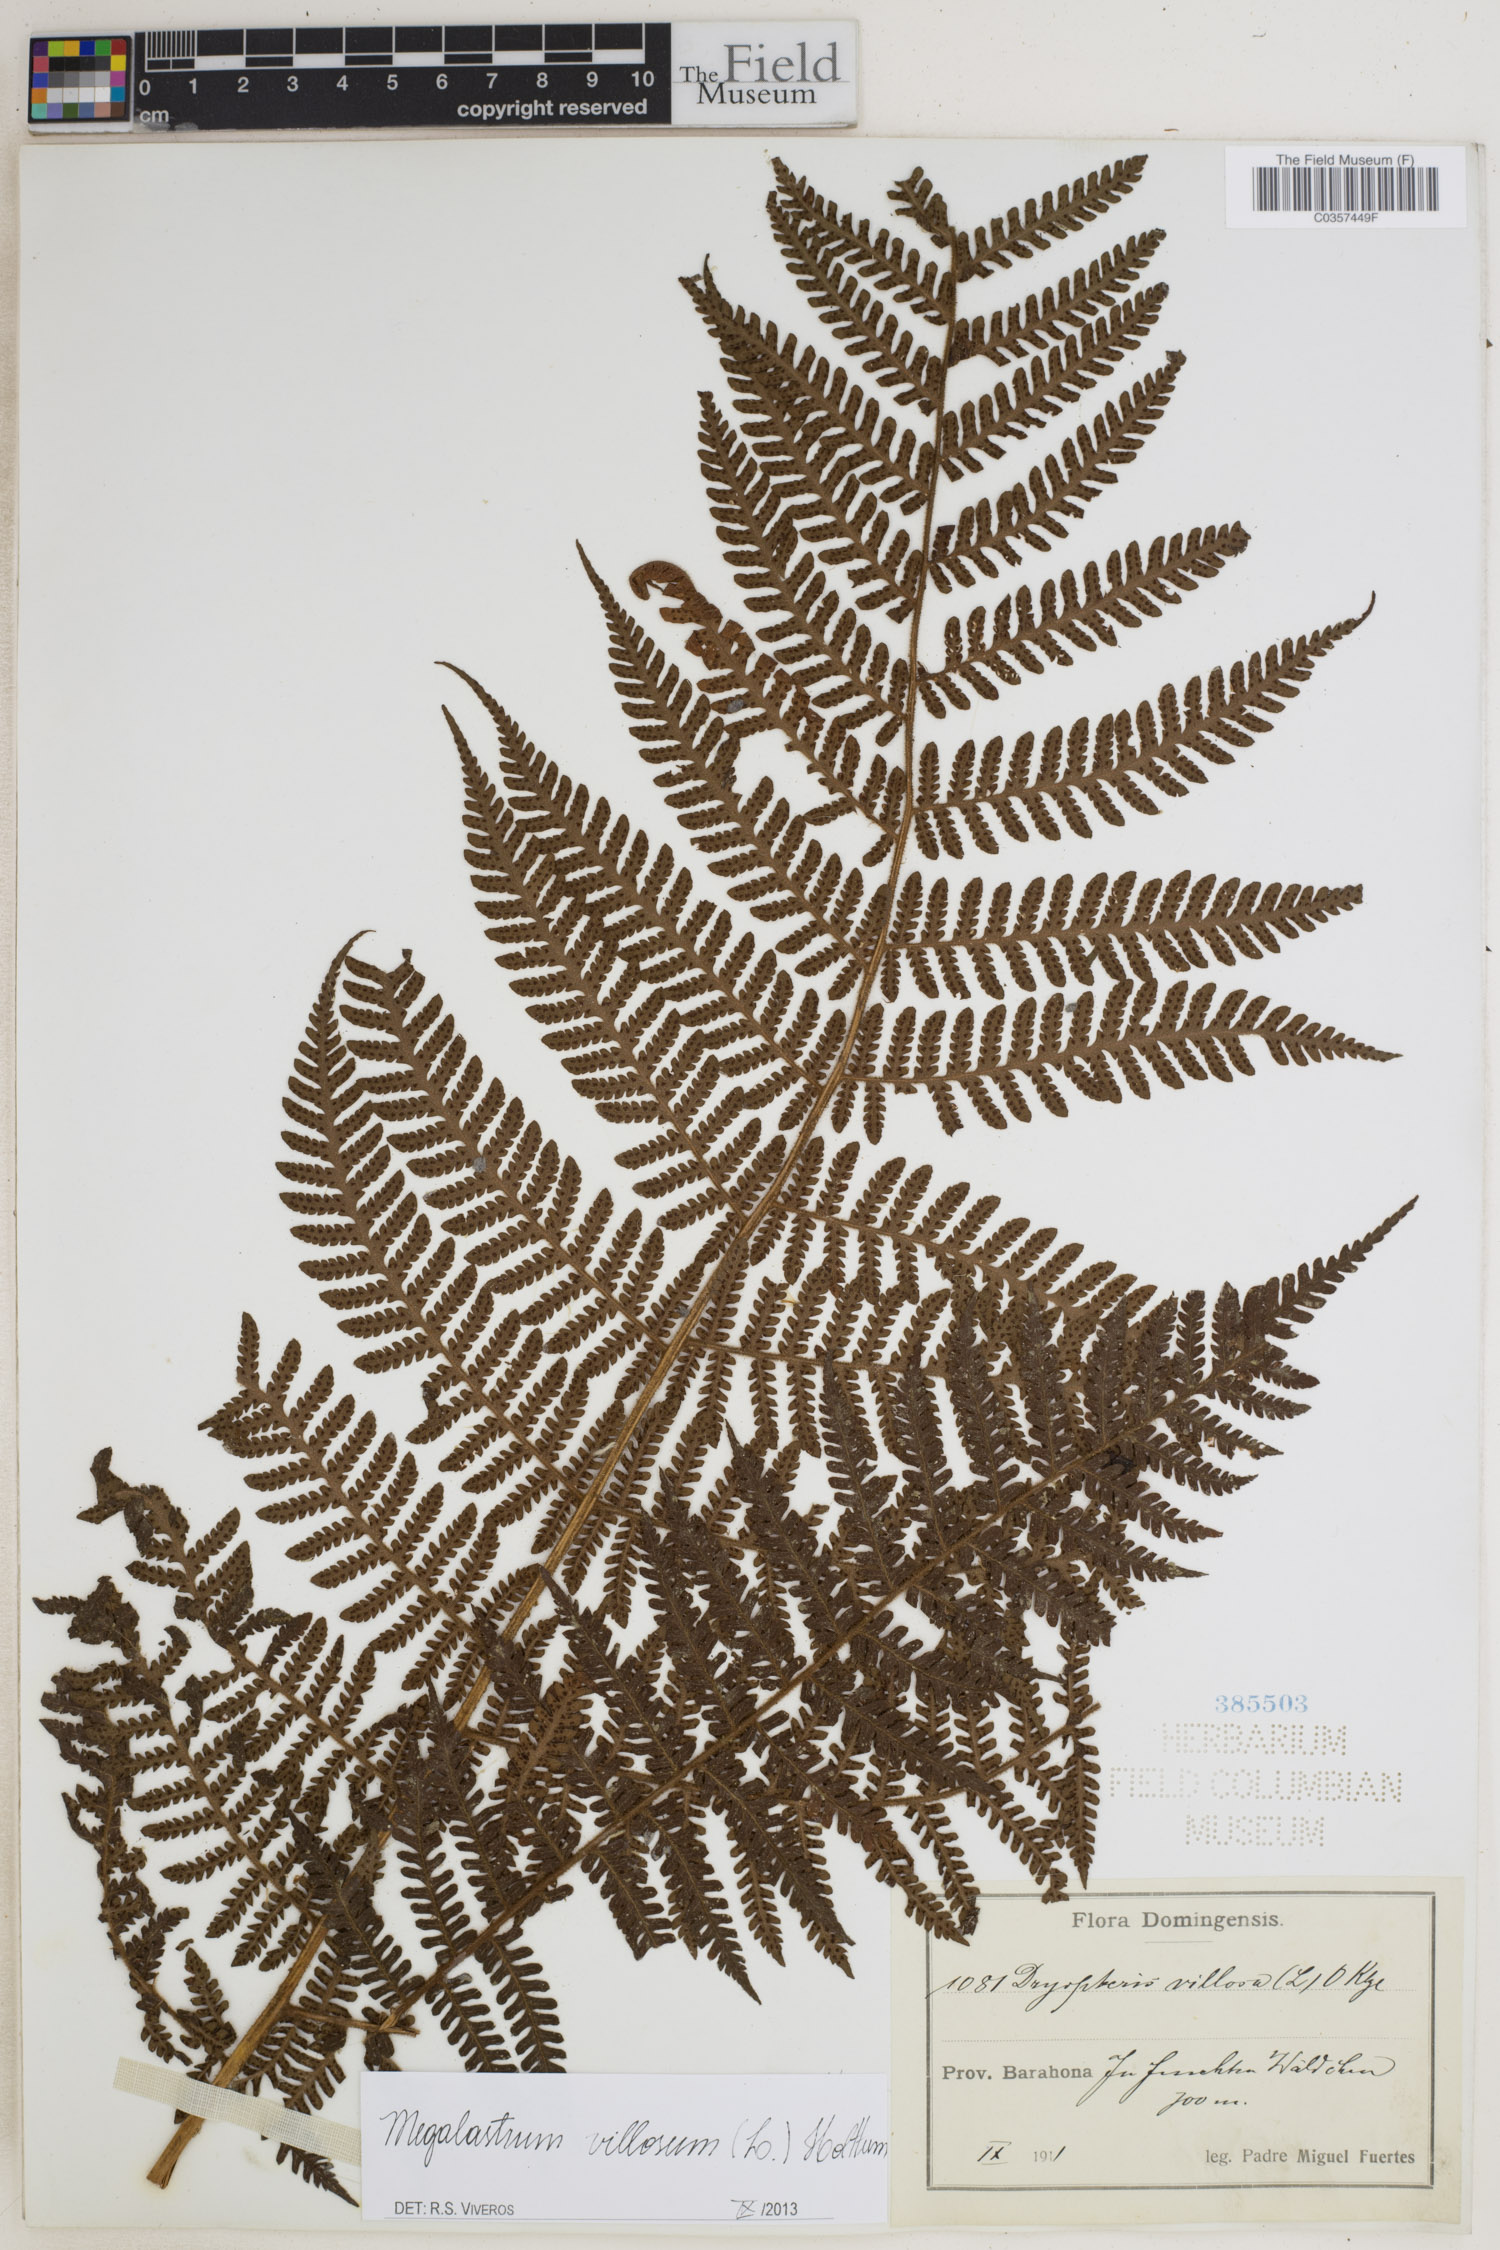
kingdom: Plantae
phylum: Tracheophyta
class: Polypodiopsida
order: Polypodiales
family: Dryopteridaceae
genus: Megalastrum
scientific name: Megalastrum villosum
